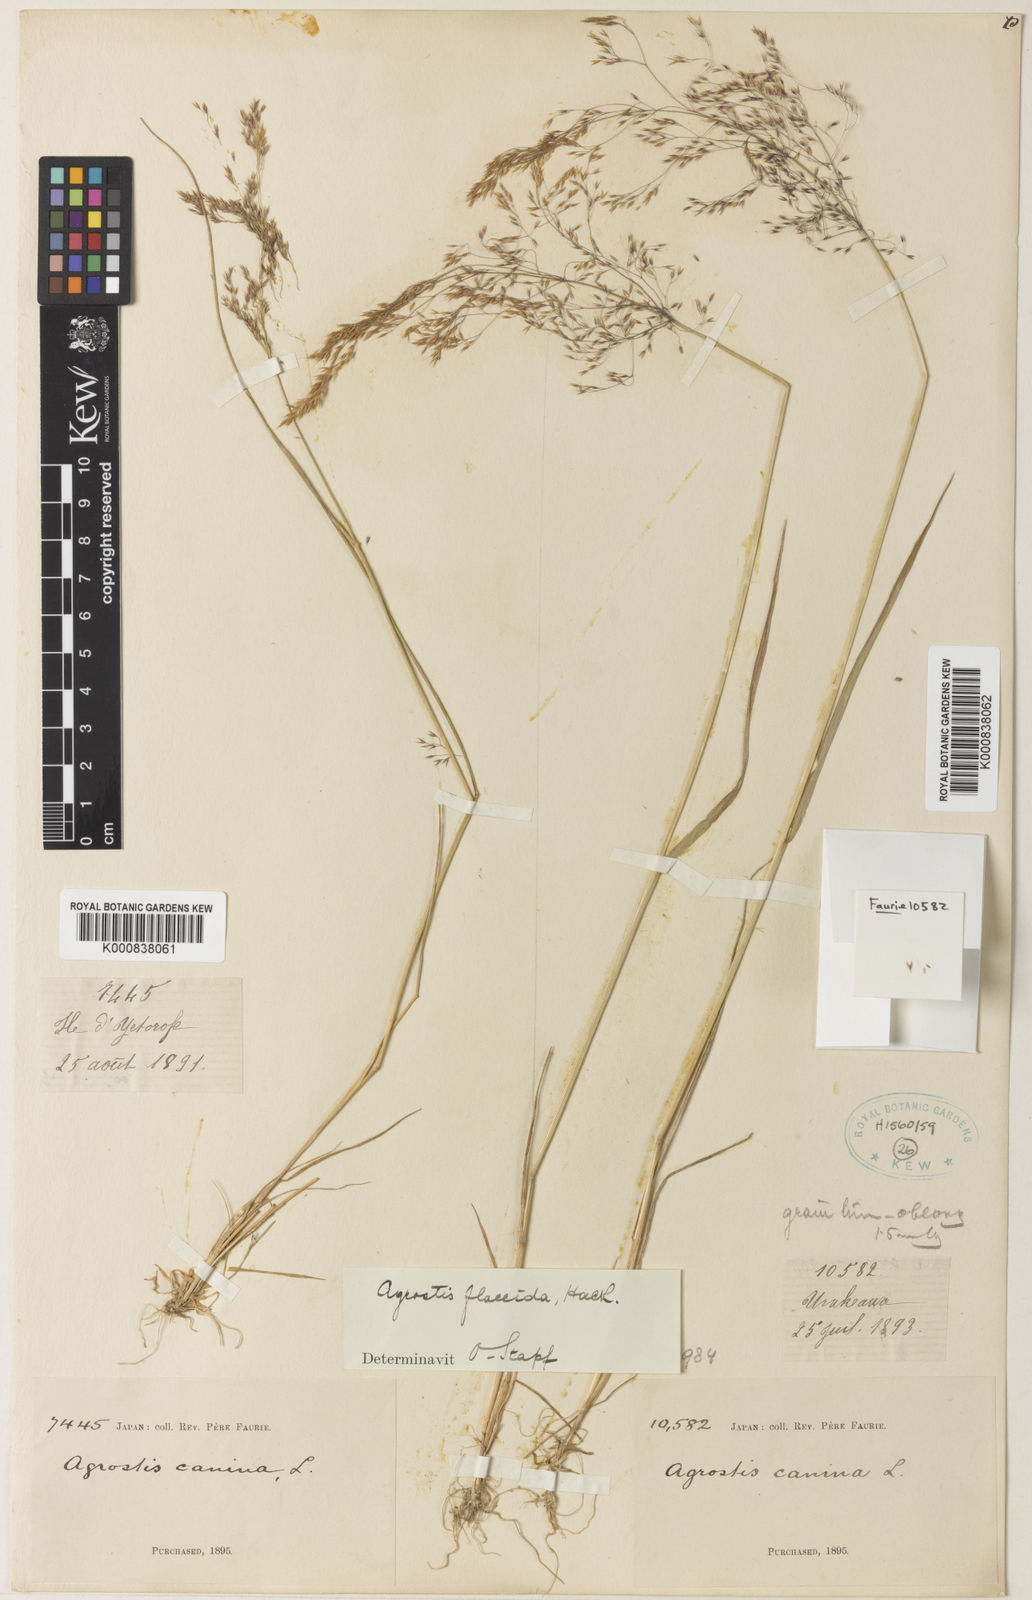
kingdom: Plantae
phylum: Tracheophyta
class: Liliopsida
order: Poales
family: Poaceae
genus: Agrostis
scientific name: Agrostis flaccida
